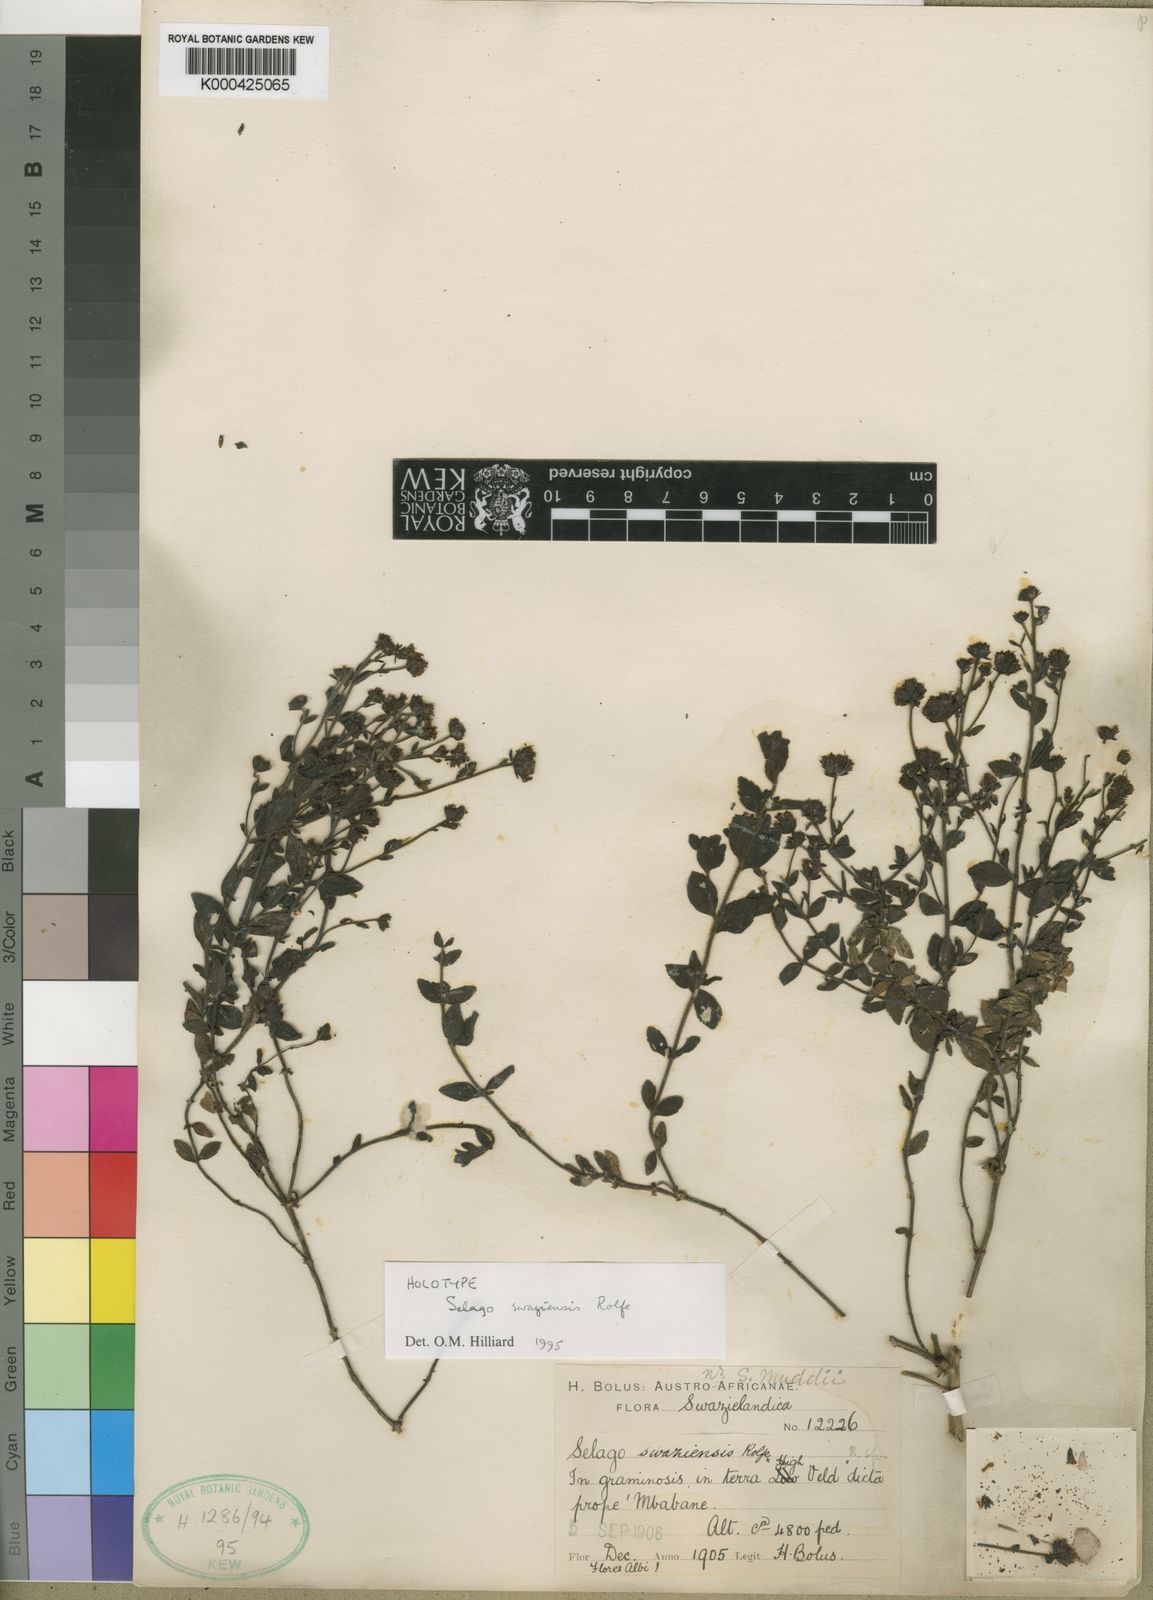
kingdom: Plantae
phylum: Tracheophyta
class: Magnoliopsida
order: Lamiales
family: Scrophulariaceae
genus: Selago
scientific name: Selago
